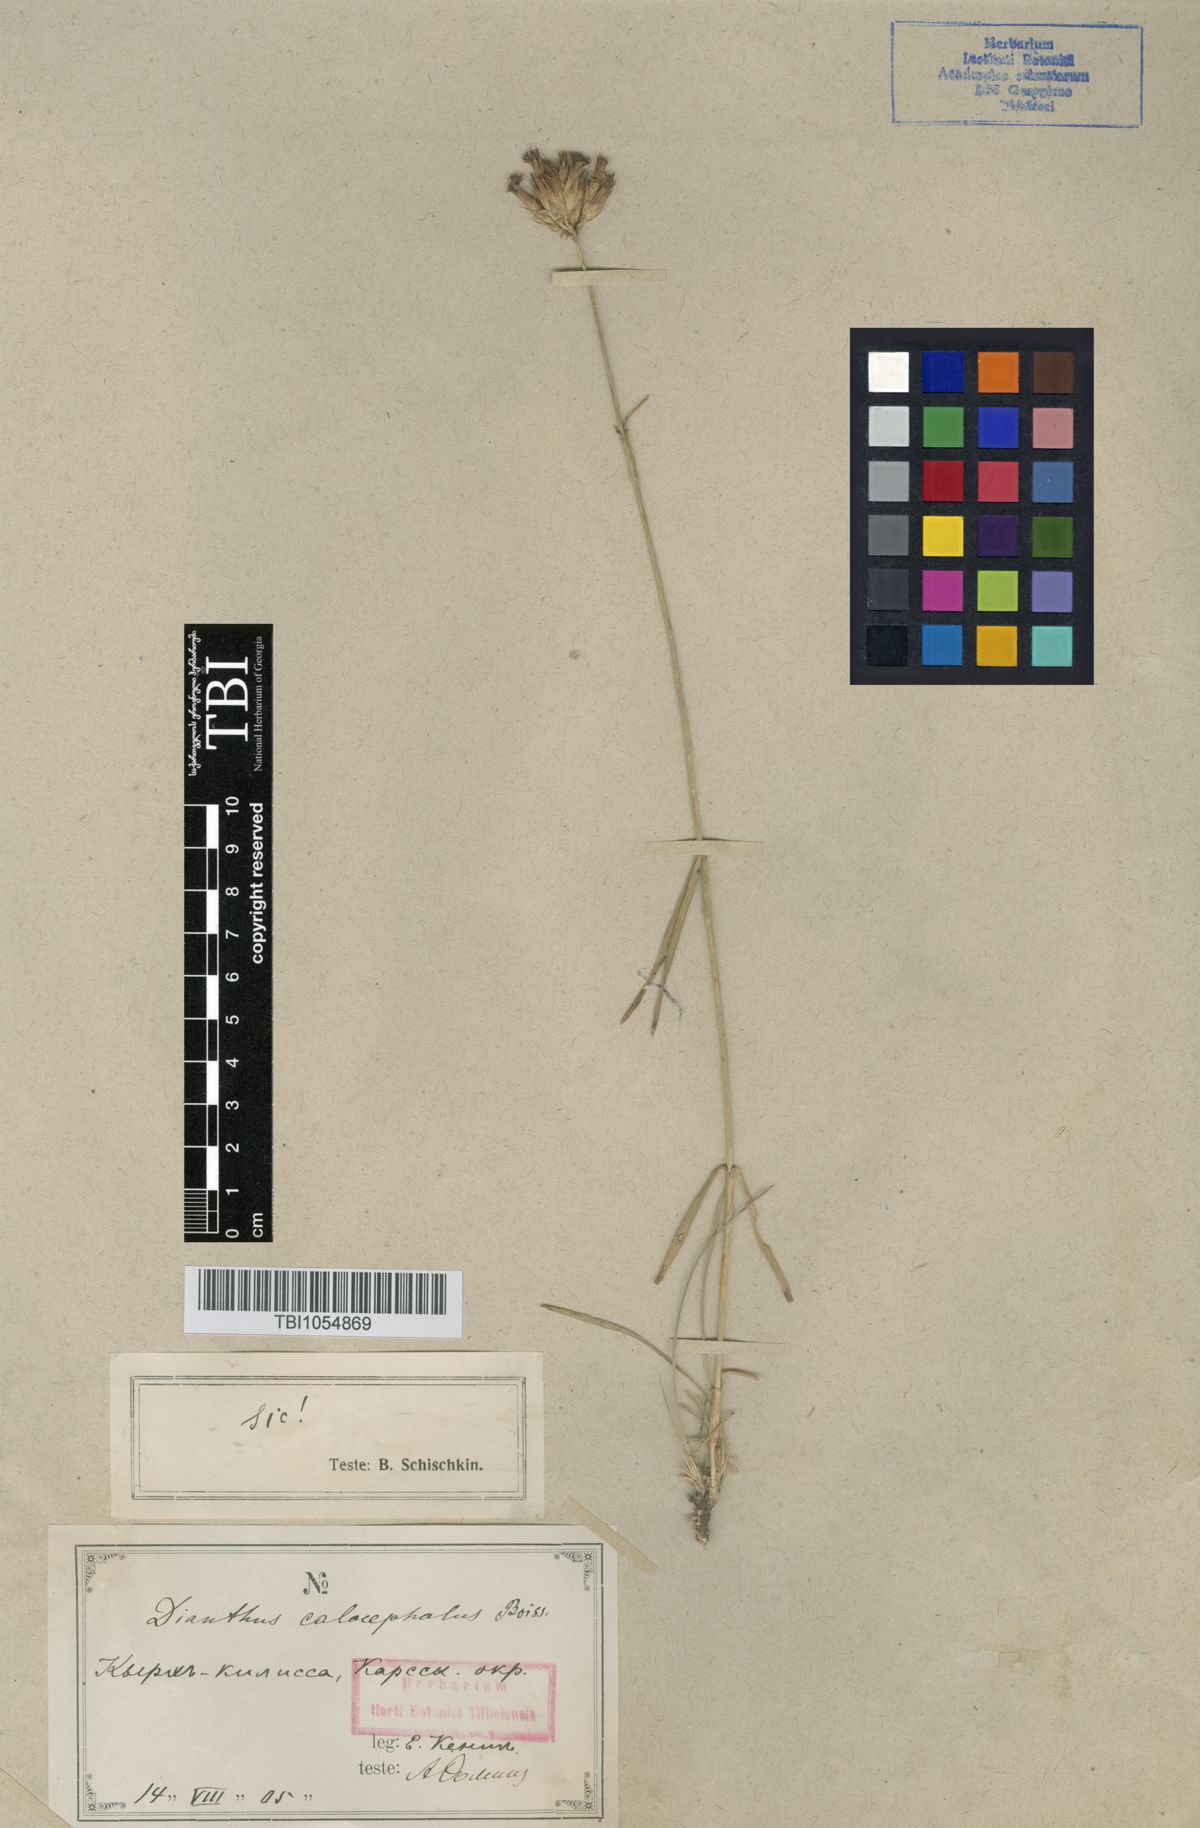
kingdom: Plantae
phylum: Tracheophyta
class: Magnoliopsida
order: Caryophyllales
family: Caryophyllaceae
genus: Dianthus
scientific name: Dianthus cruentus
